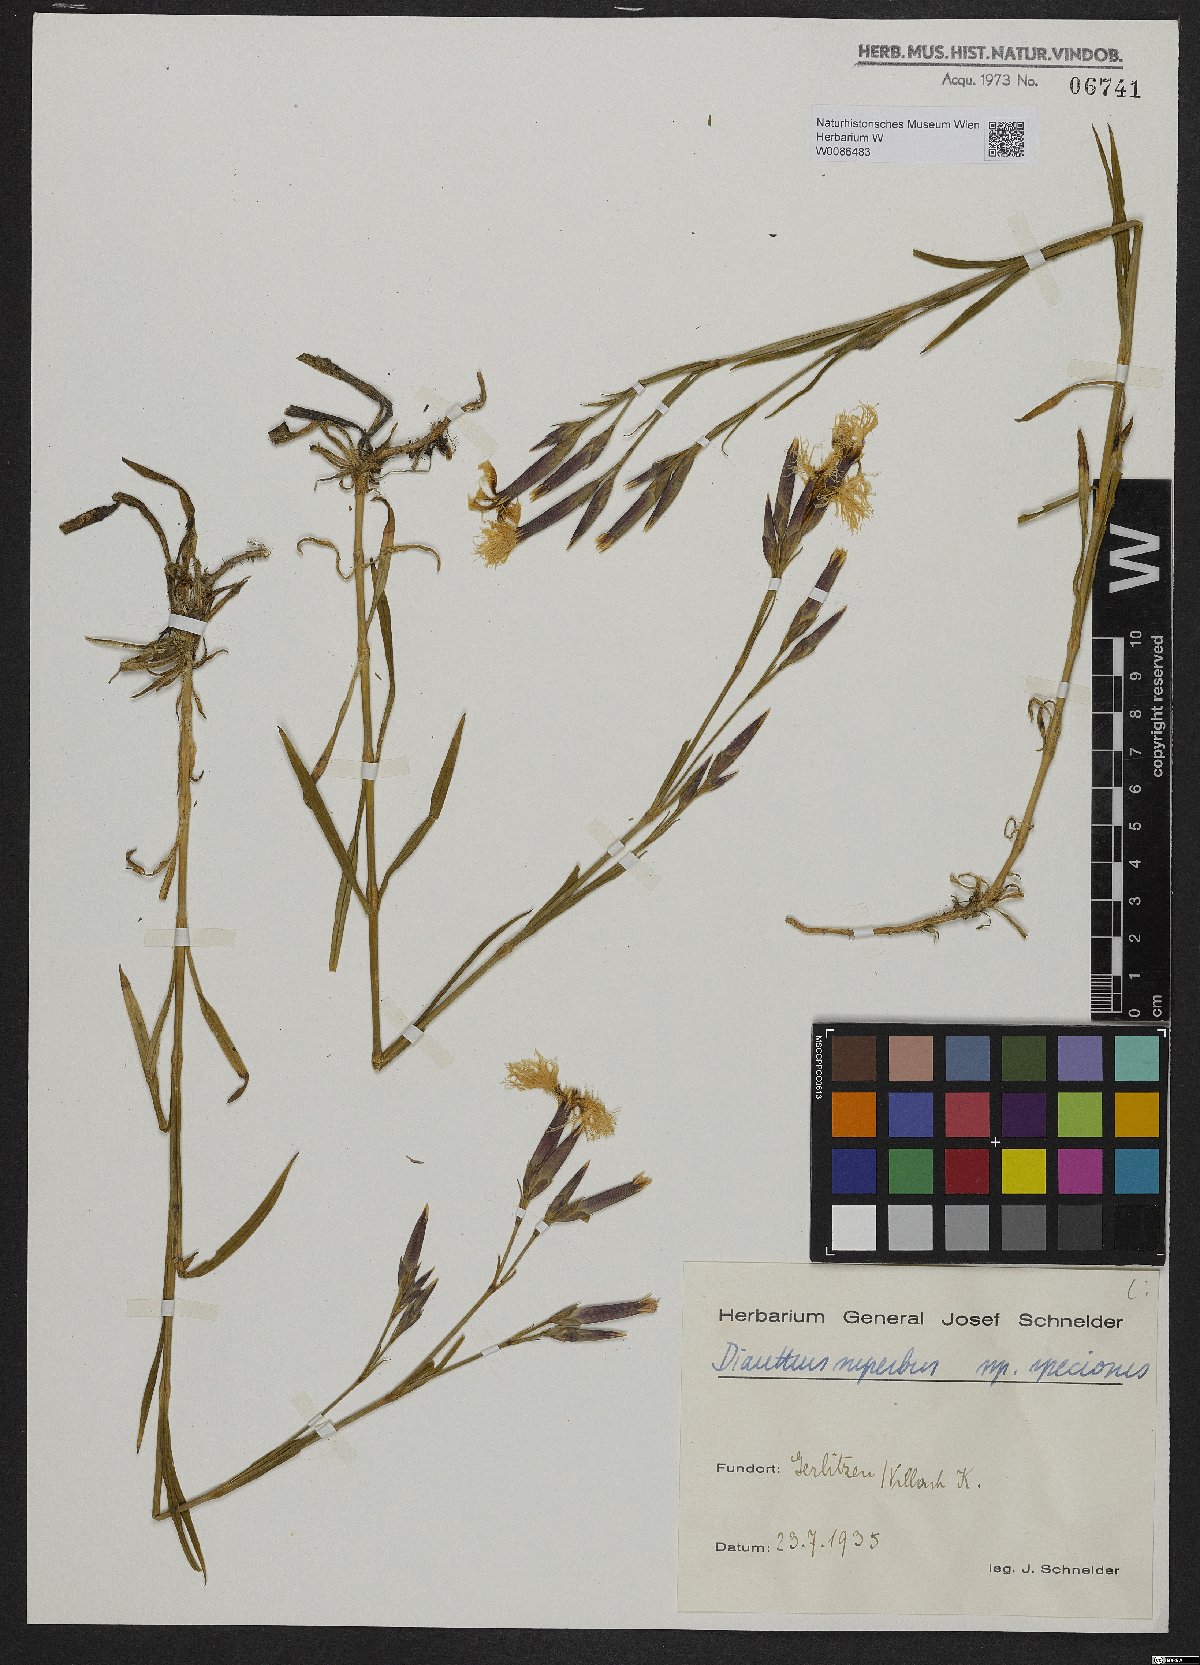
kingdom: Plantae
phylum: Tracheophyta
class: Magnoliopsida
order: Caryophyllales
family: Caryophyllaceae
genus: Dianthus
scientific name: Dianthus superbus
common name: Fringed pink
